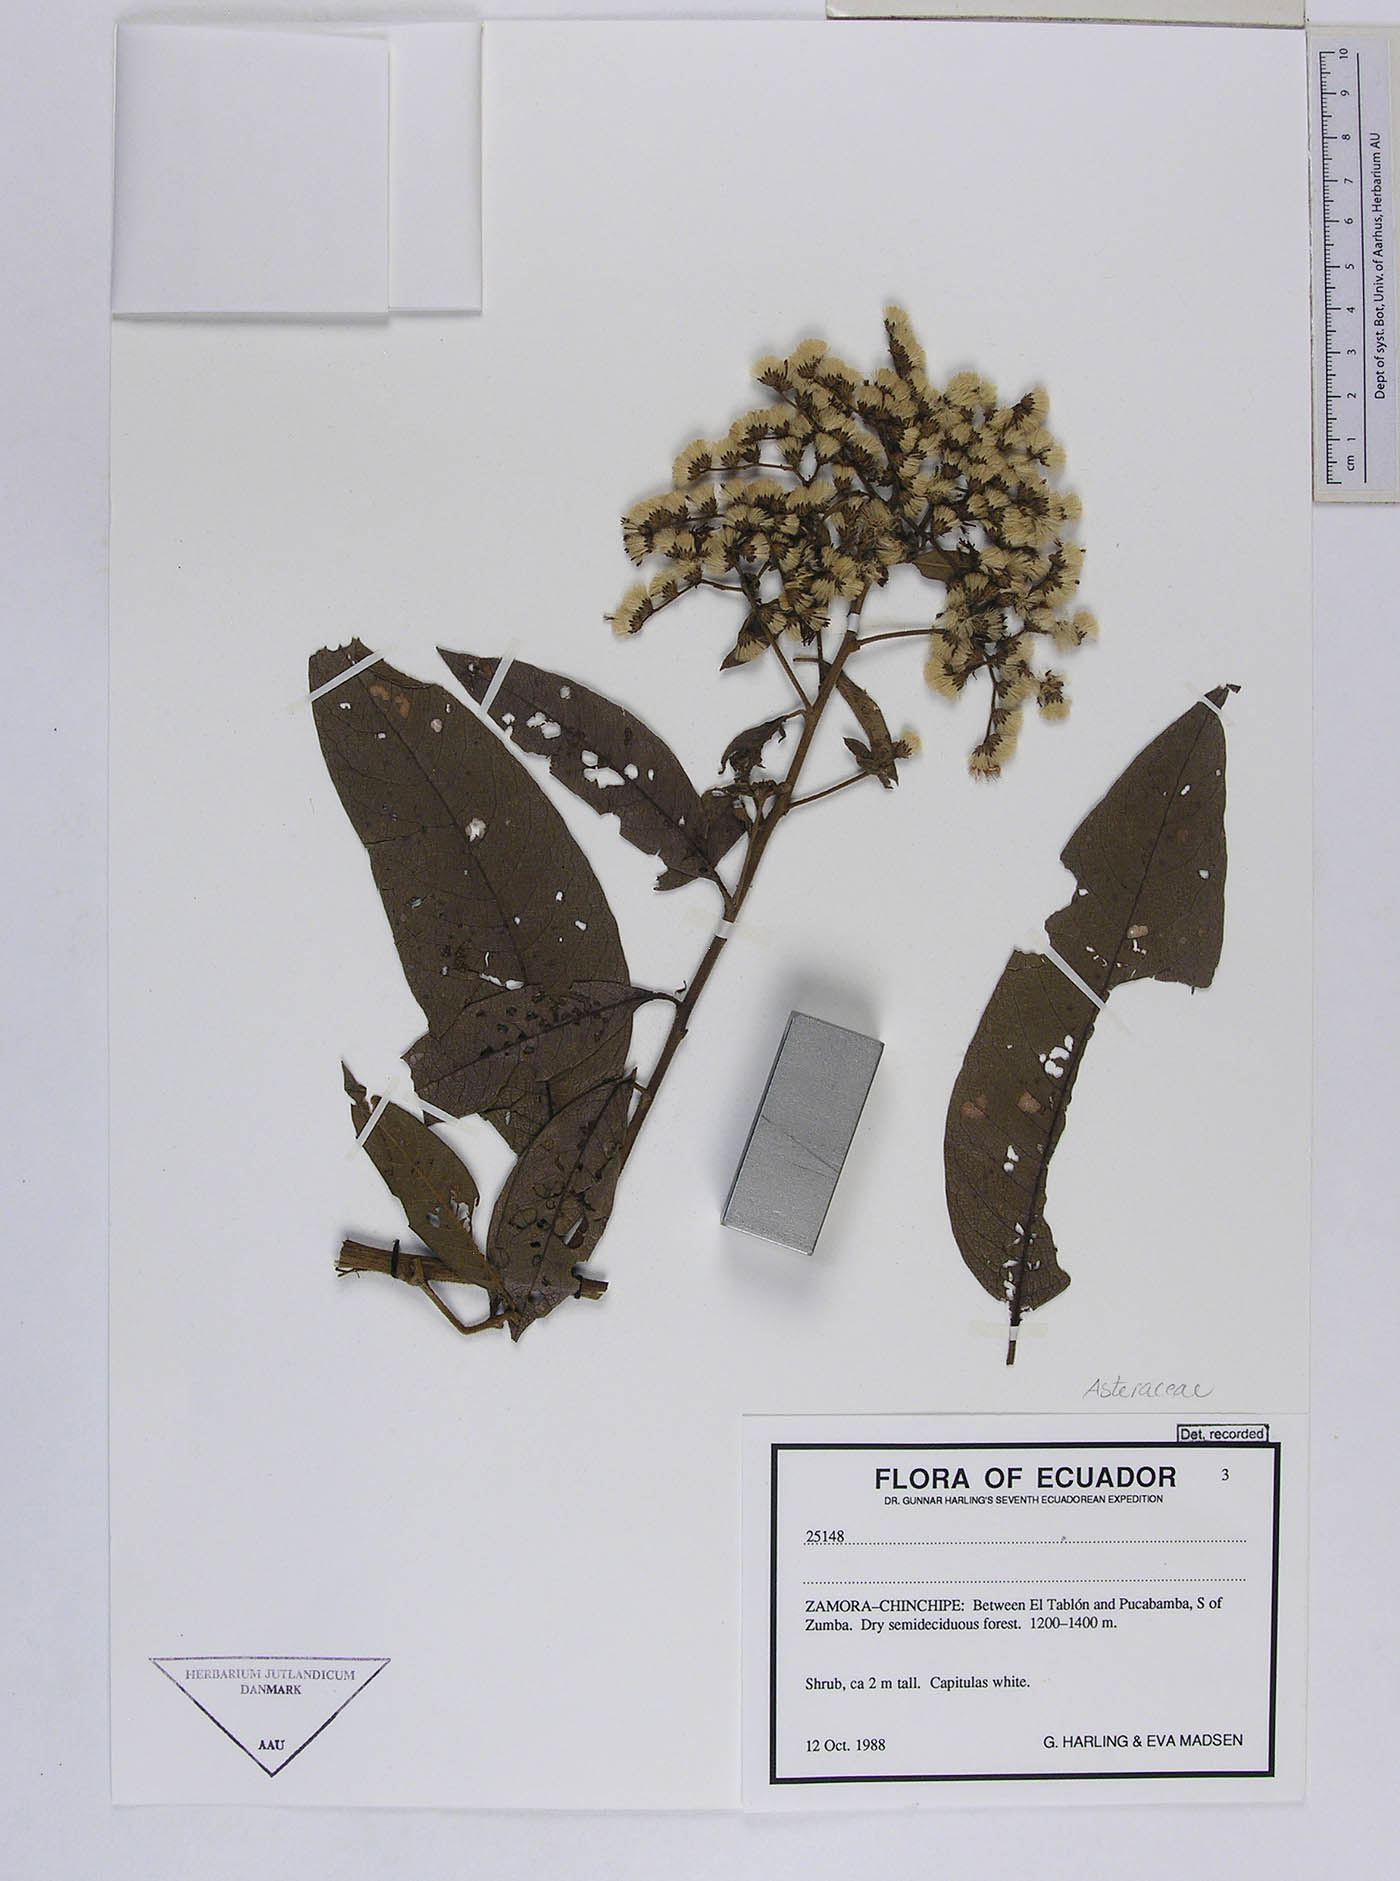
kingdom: Plantae
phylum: Tracheophyta
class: Magnoliopsida
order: Asterales
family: Asteraceae
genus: Vernonanthura
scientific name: Vernonanthura patens
